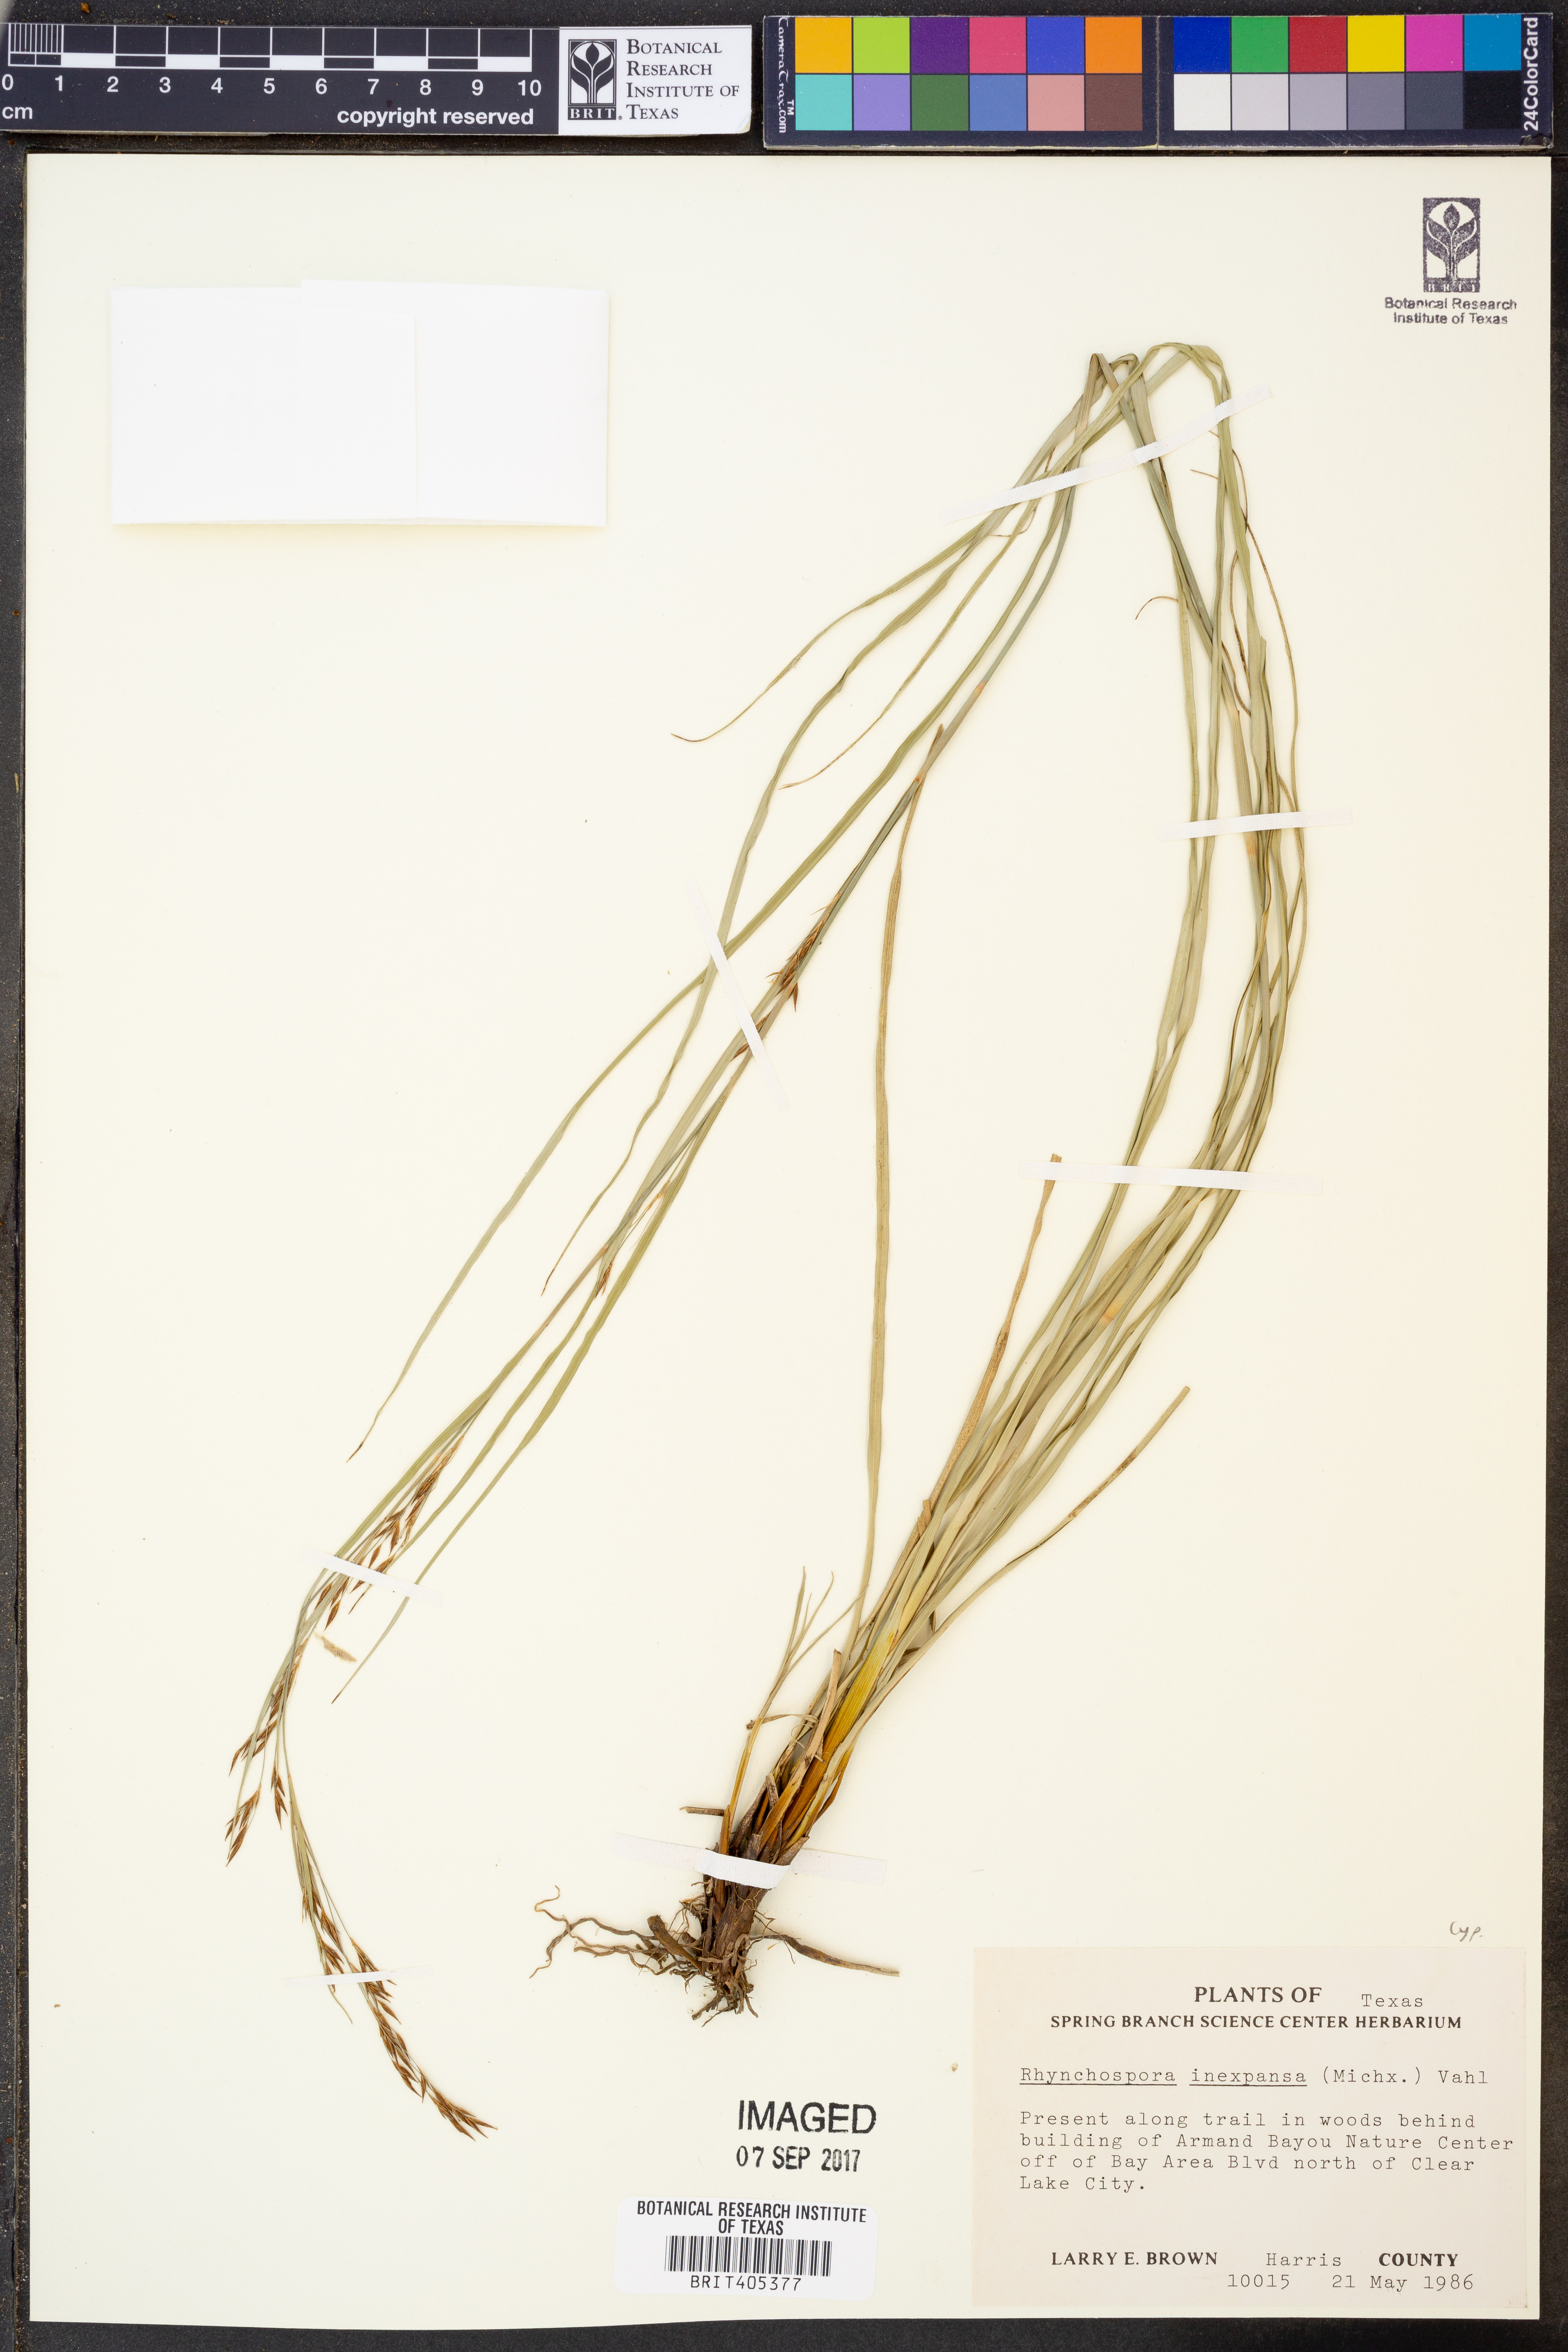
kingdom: Plantae
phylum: Tracheophyta
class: Liliopsida
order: Poales
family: Cyperaceae
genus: Rhynchospora
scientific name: Rhynchospora inexpansa
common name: Nodding beaksedge
